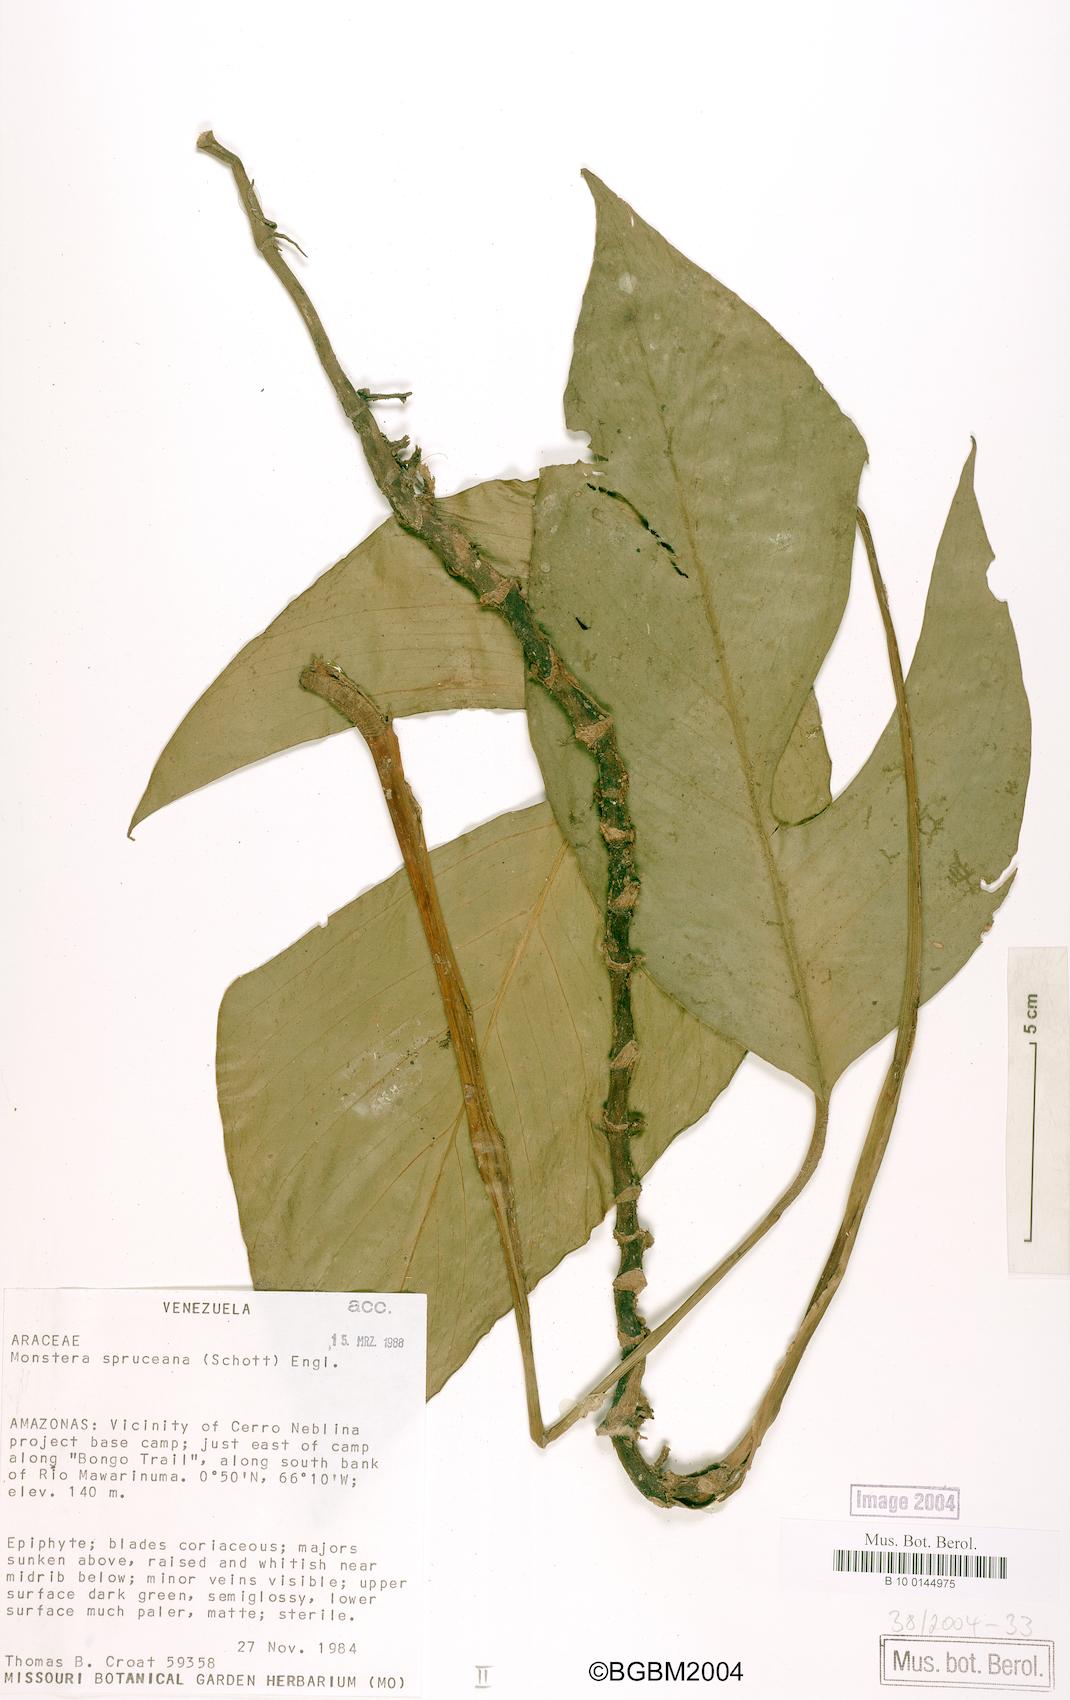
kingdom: Plantae
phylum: Tracheophyta
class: Liliopsida
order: Alismatales
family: Araceae
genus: Monstera
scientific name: Monstera spruceana
